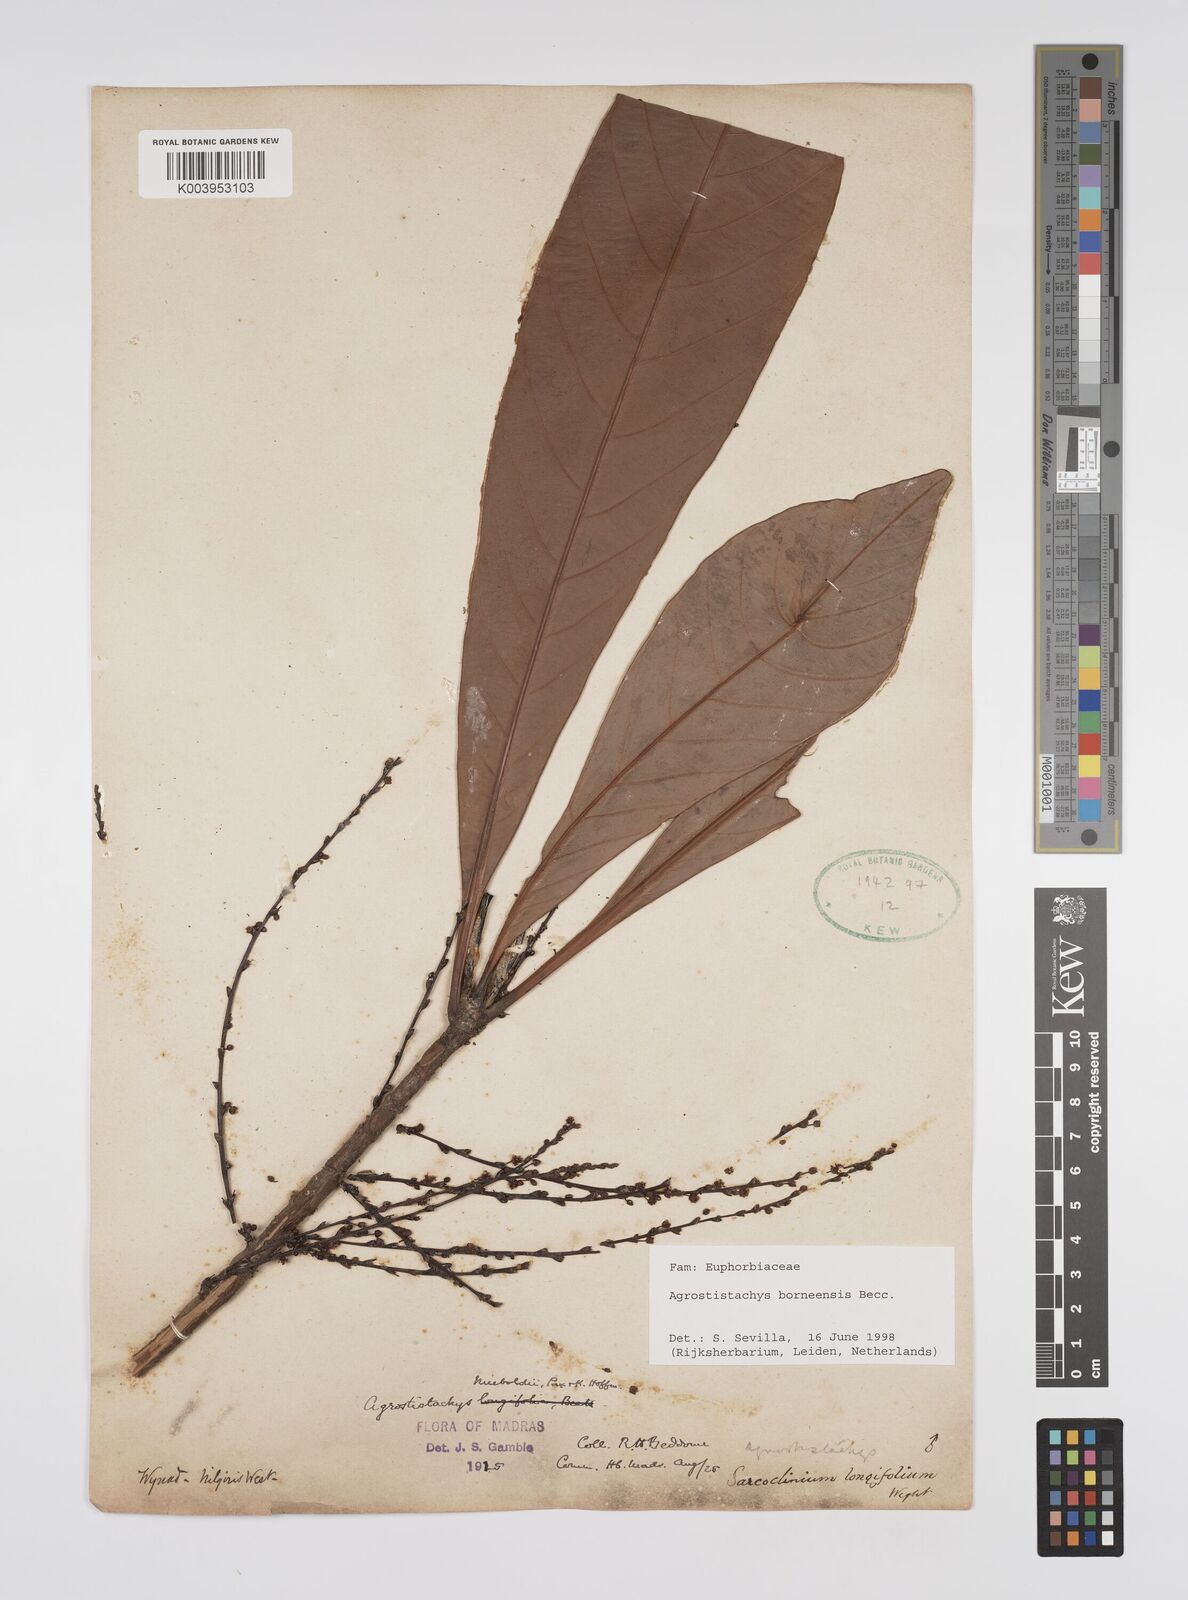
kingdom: Plantae
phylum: Tracheophyta
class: Magnoliopsida
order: Malpighiales
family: Euphorbiaceae
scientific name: Euphorbiaceae
